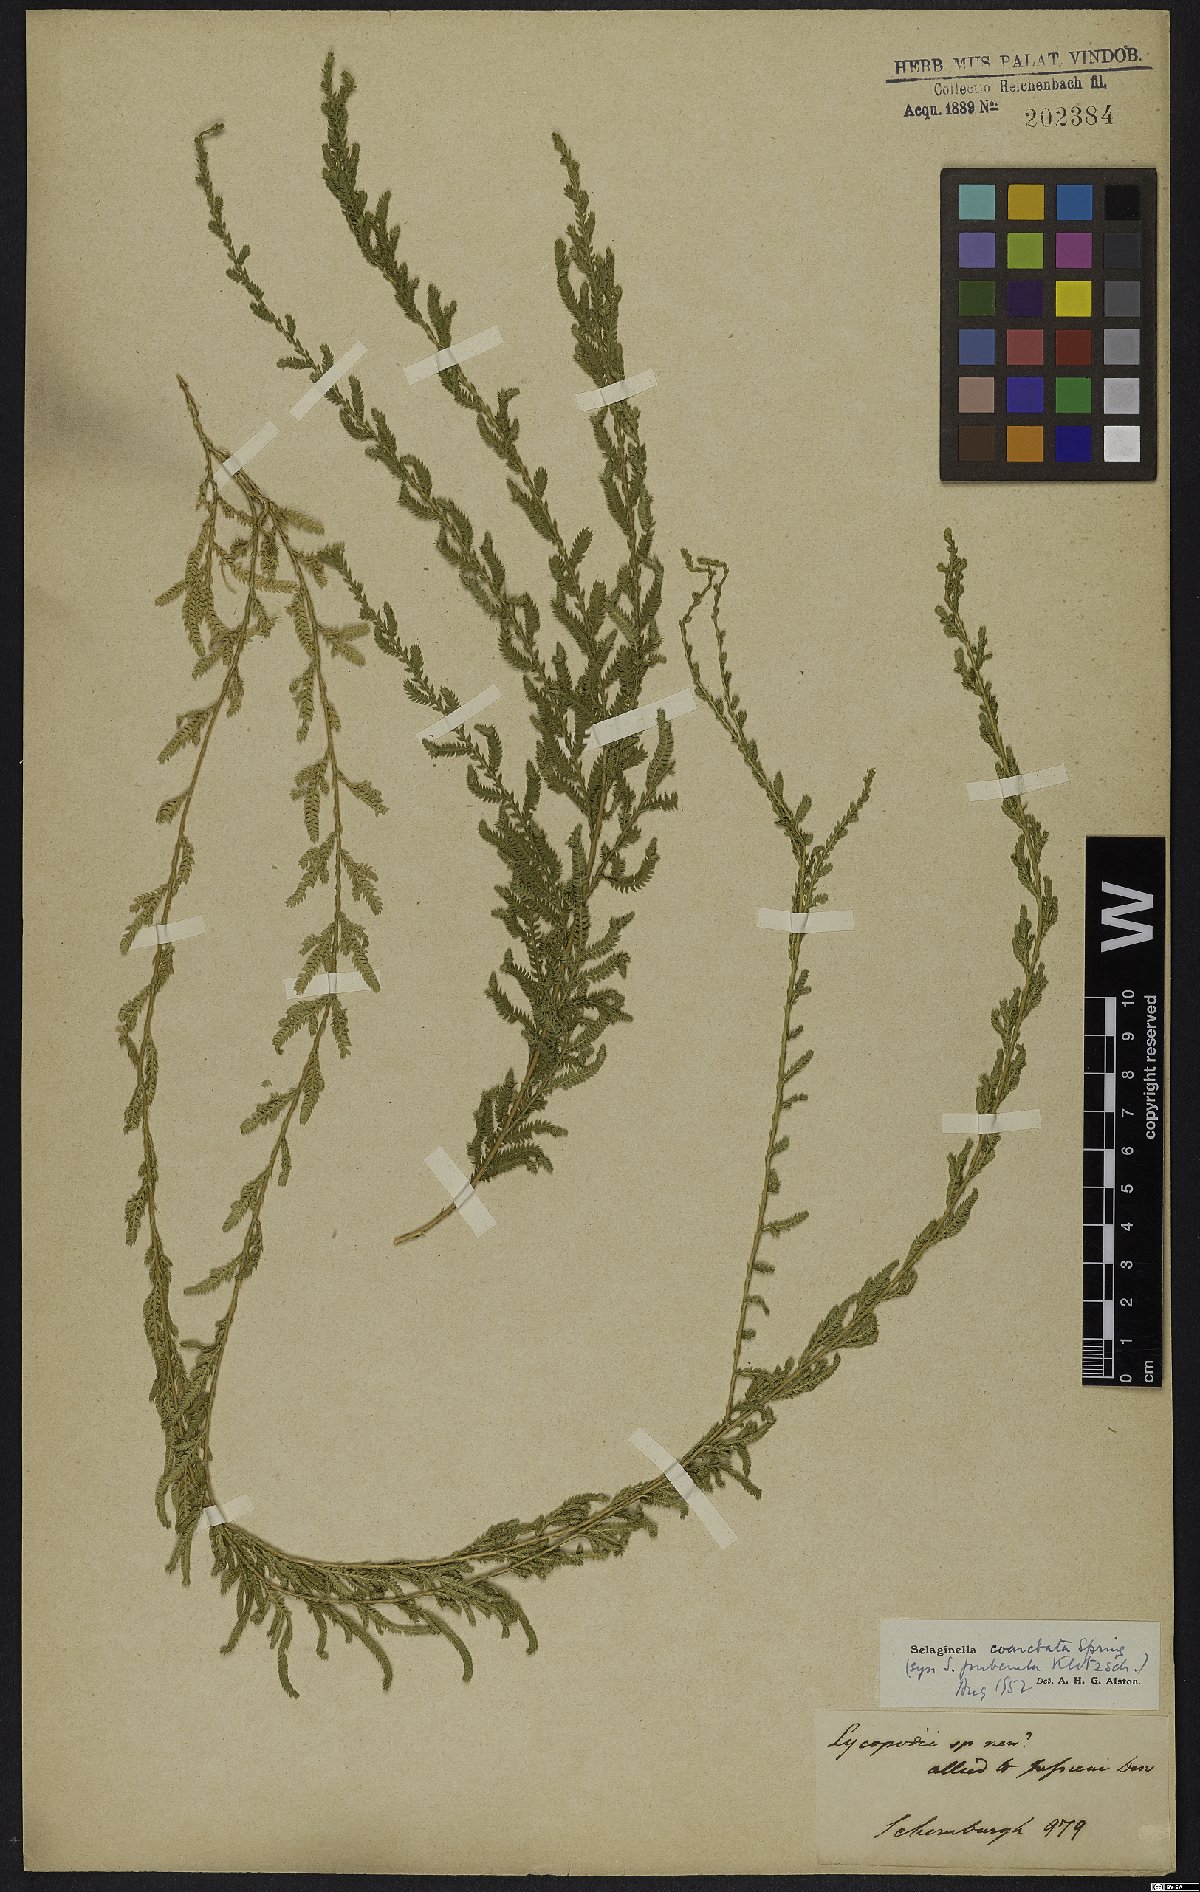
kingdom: Plantae
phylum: Tracheophyta
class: Lycopodiopsida
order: Selaginellales
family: Selaginellaceae
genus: Selaginella
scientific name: Selaginella coarctata
